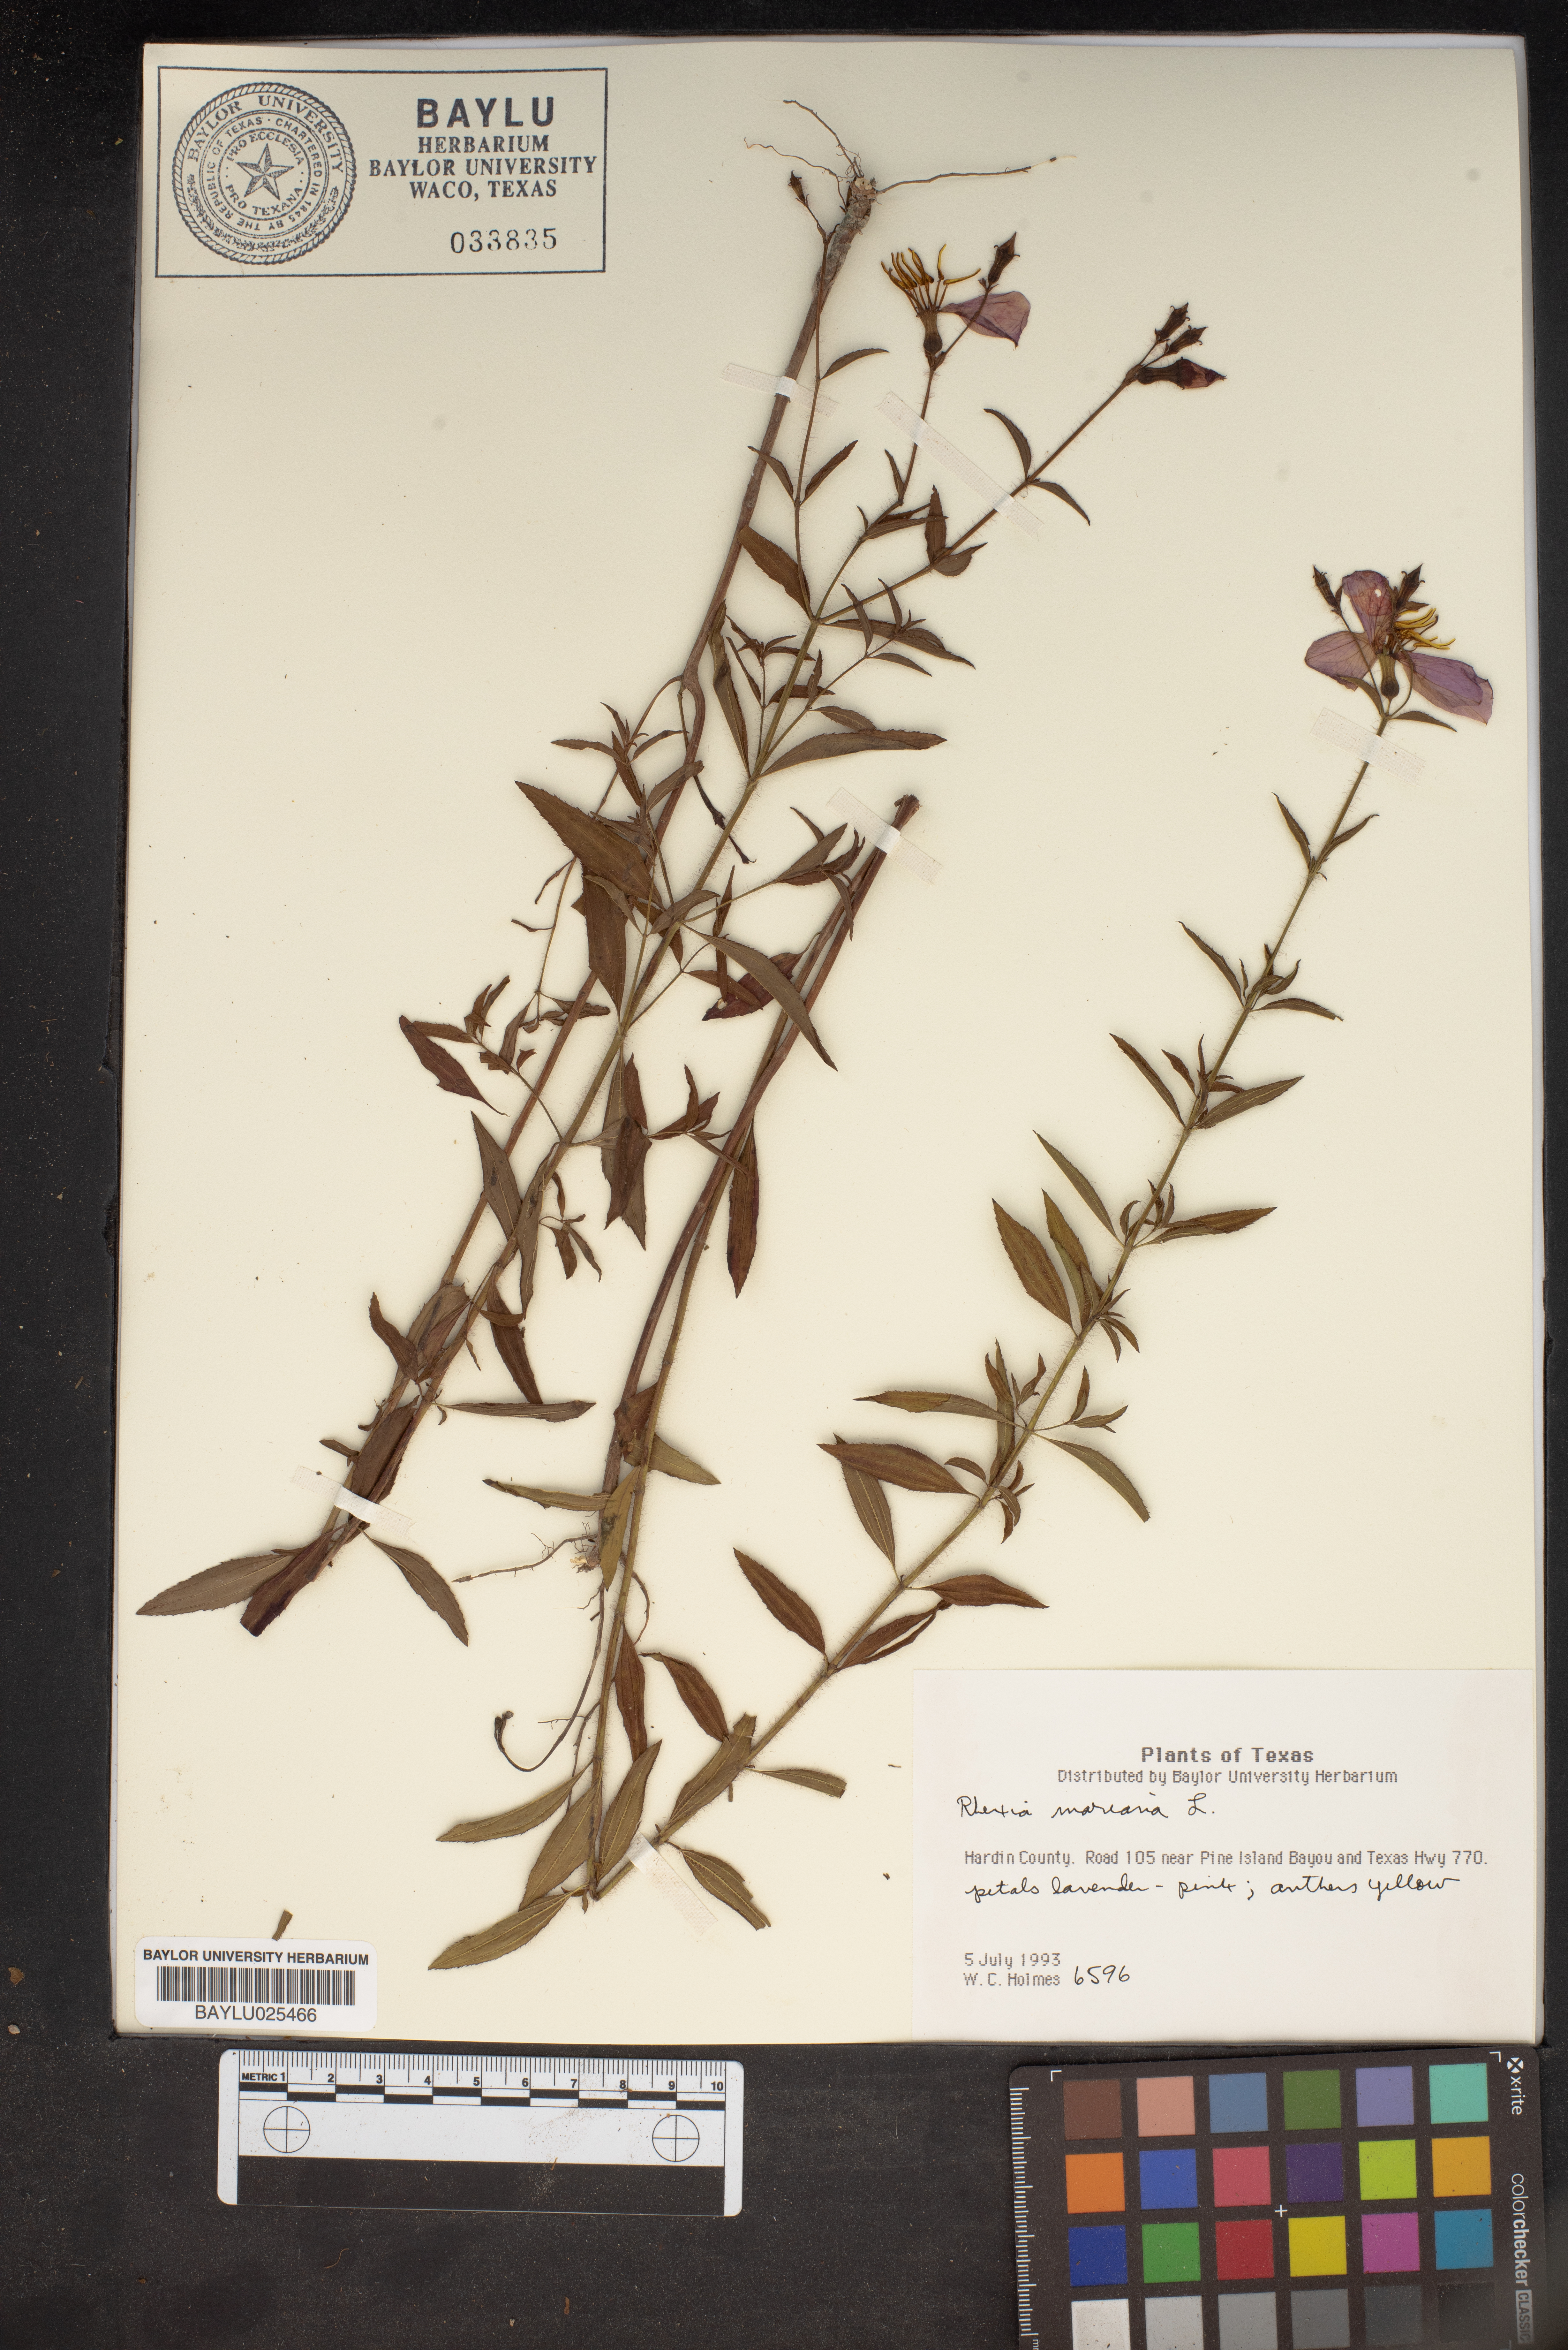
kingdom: Plantae
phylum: Tracheophyta
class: Magnoliopsida
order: Myrtales
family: Melastomataceae
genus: Rhexia
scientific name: Rhexia mariana
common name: Dull meadow-pitcher
